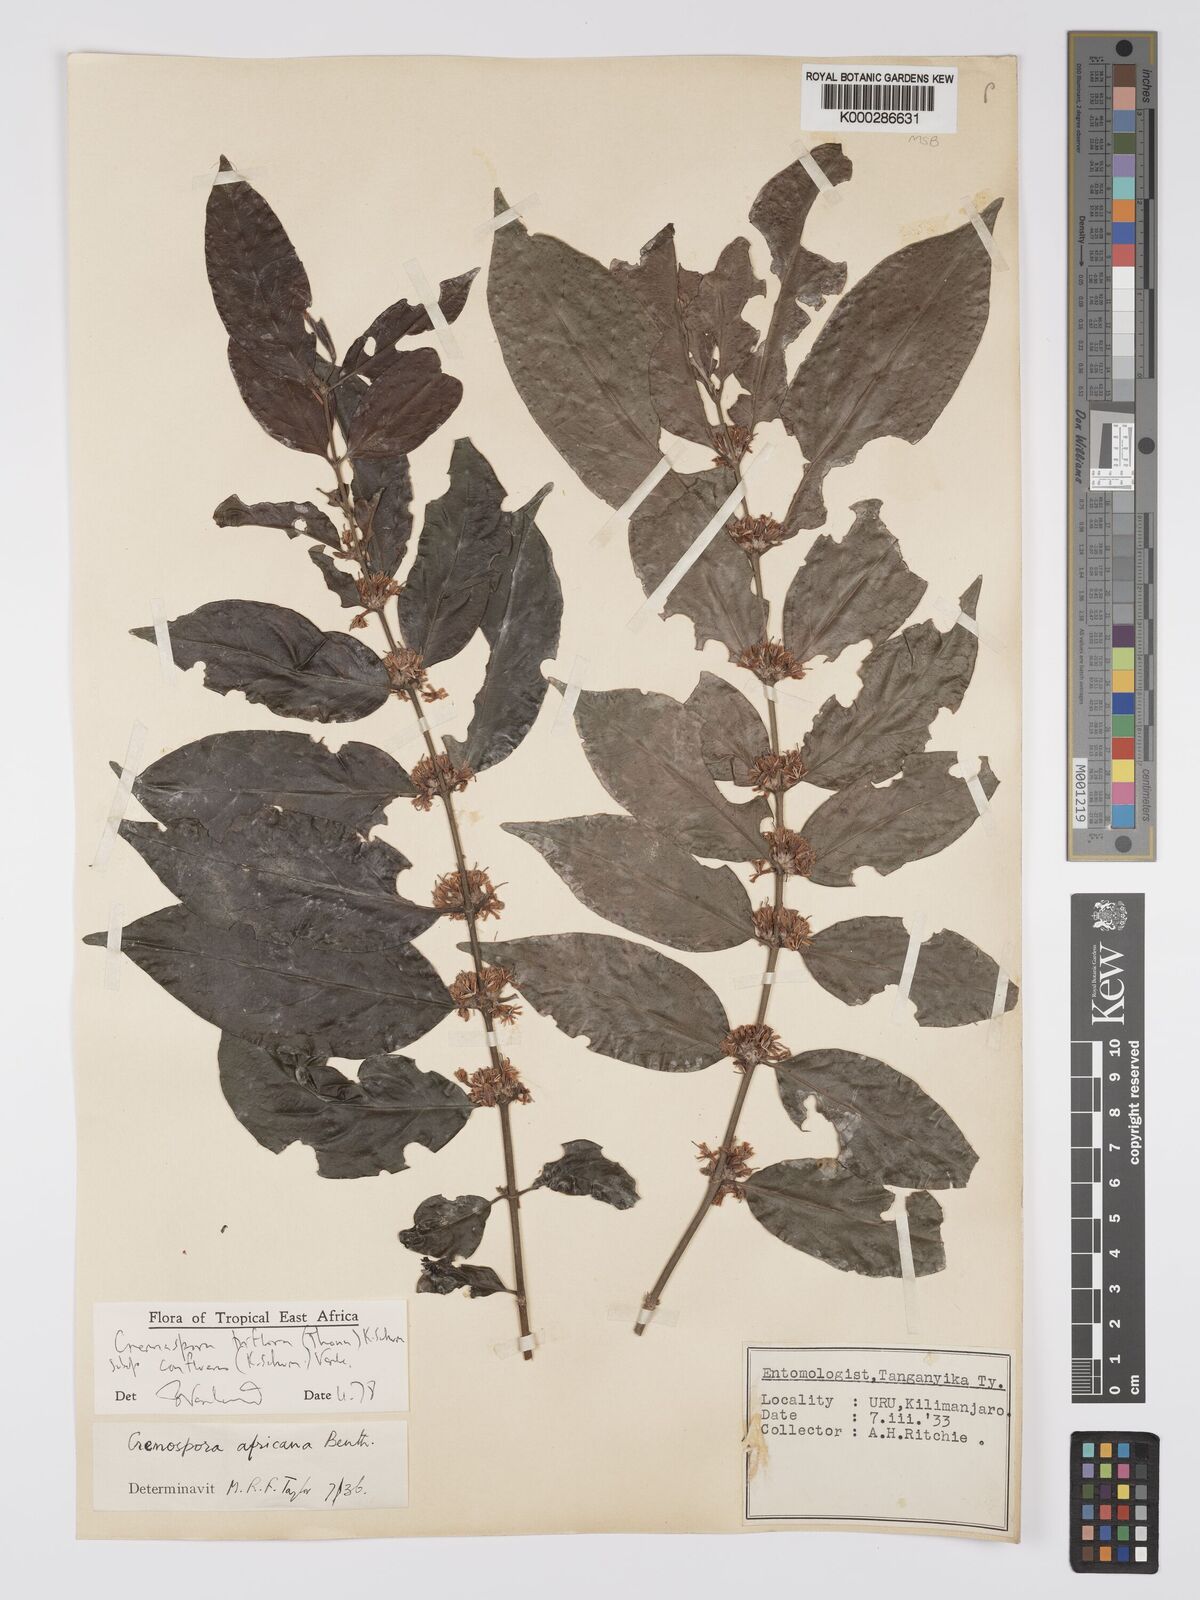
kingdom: Plantae
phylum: Tracheophyta
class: Magnoliopsida
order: Gentianales
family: Rubiaceae
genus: Cremaspora
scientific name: Cremaspora triflora
